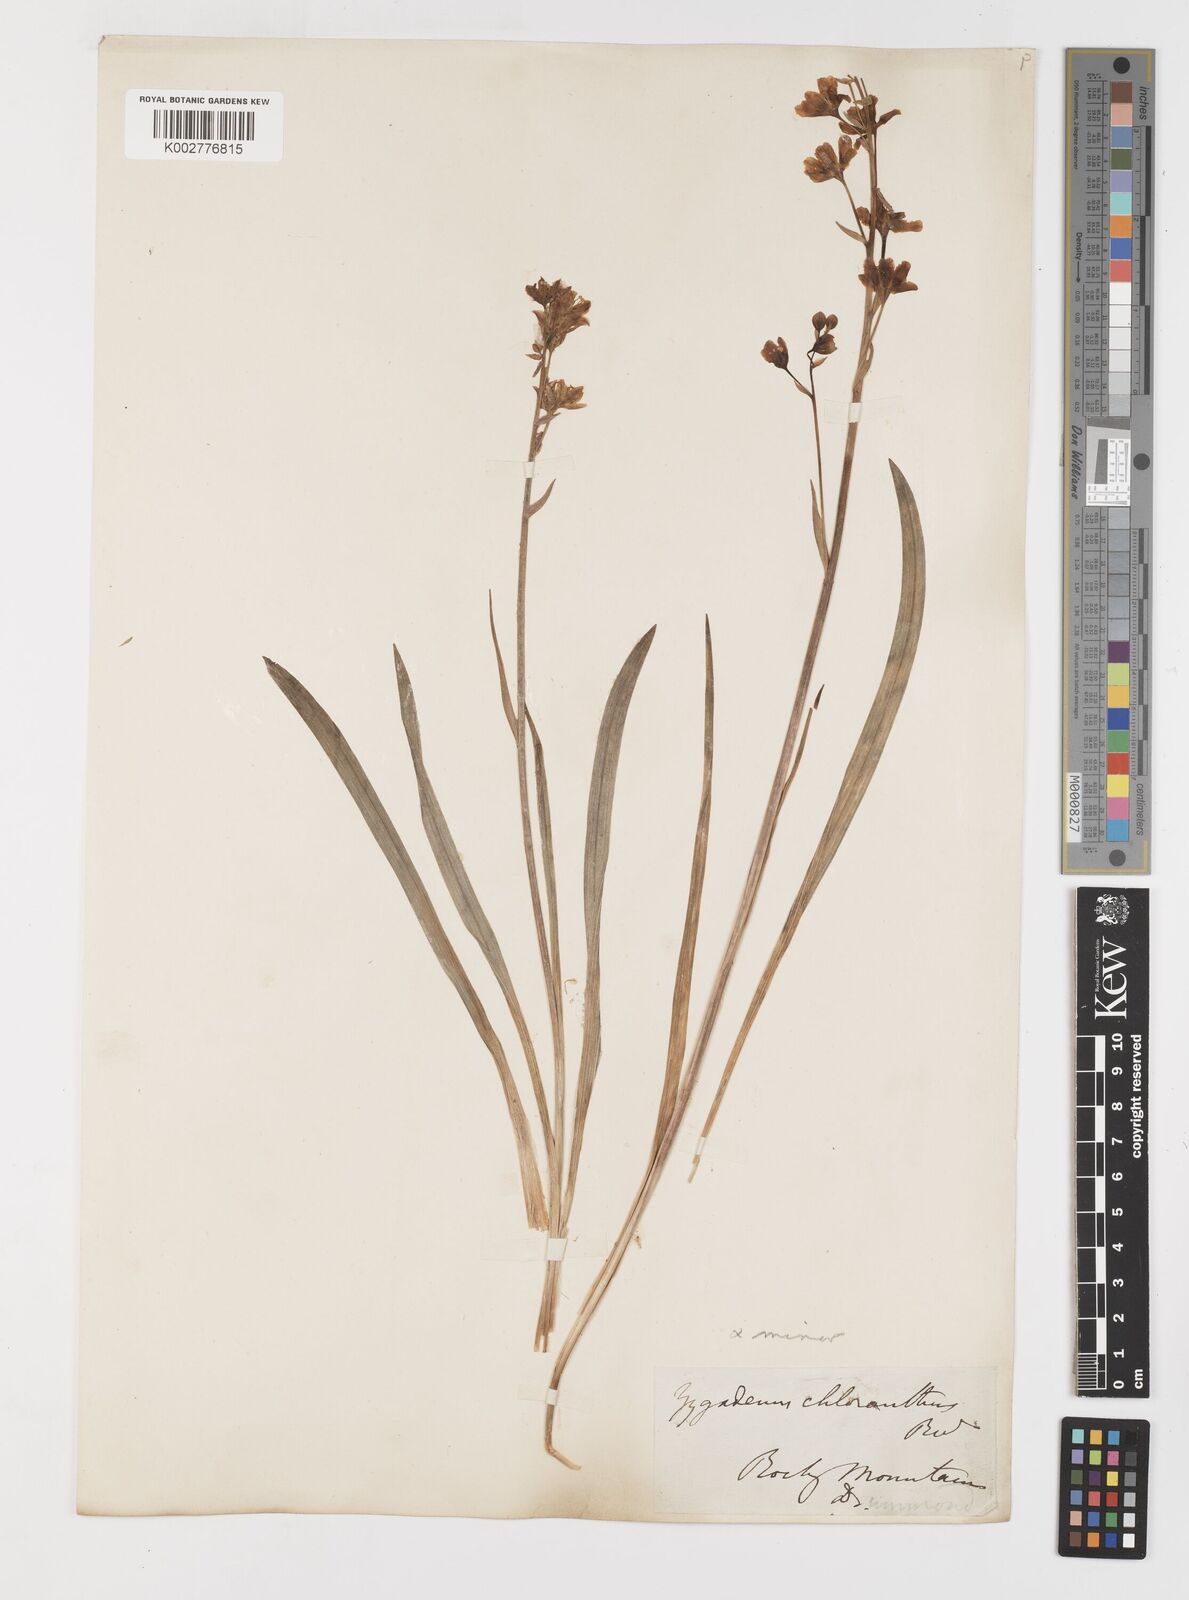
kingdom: Plantae
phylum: Tracheophyta
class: Liliopsida
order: Liliales
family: Melanthiaceae
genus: Anticlea
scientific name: Anticlea elegans
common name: Mountain death camas
